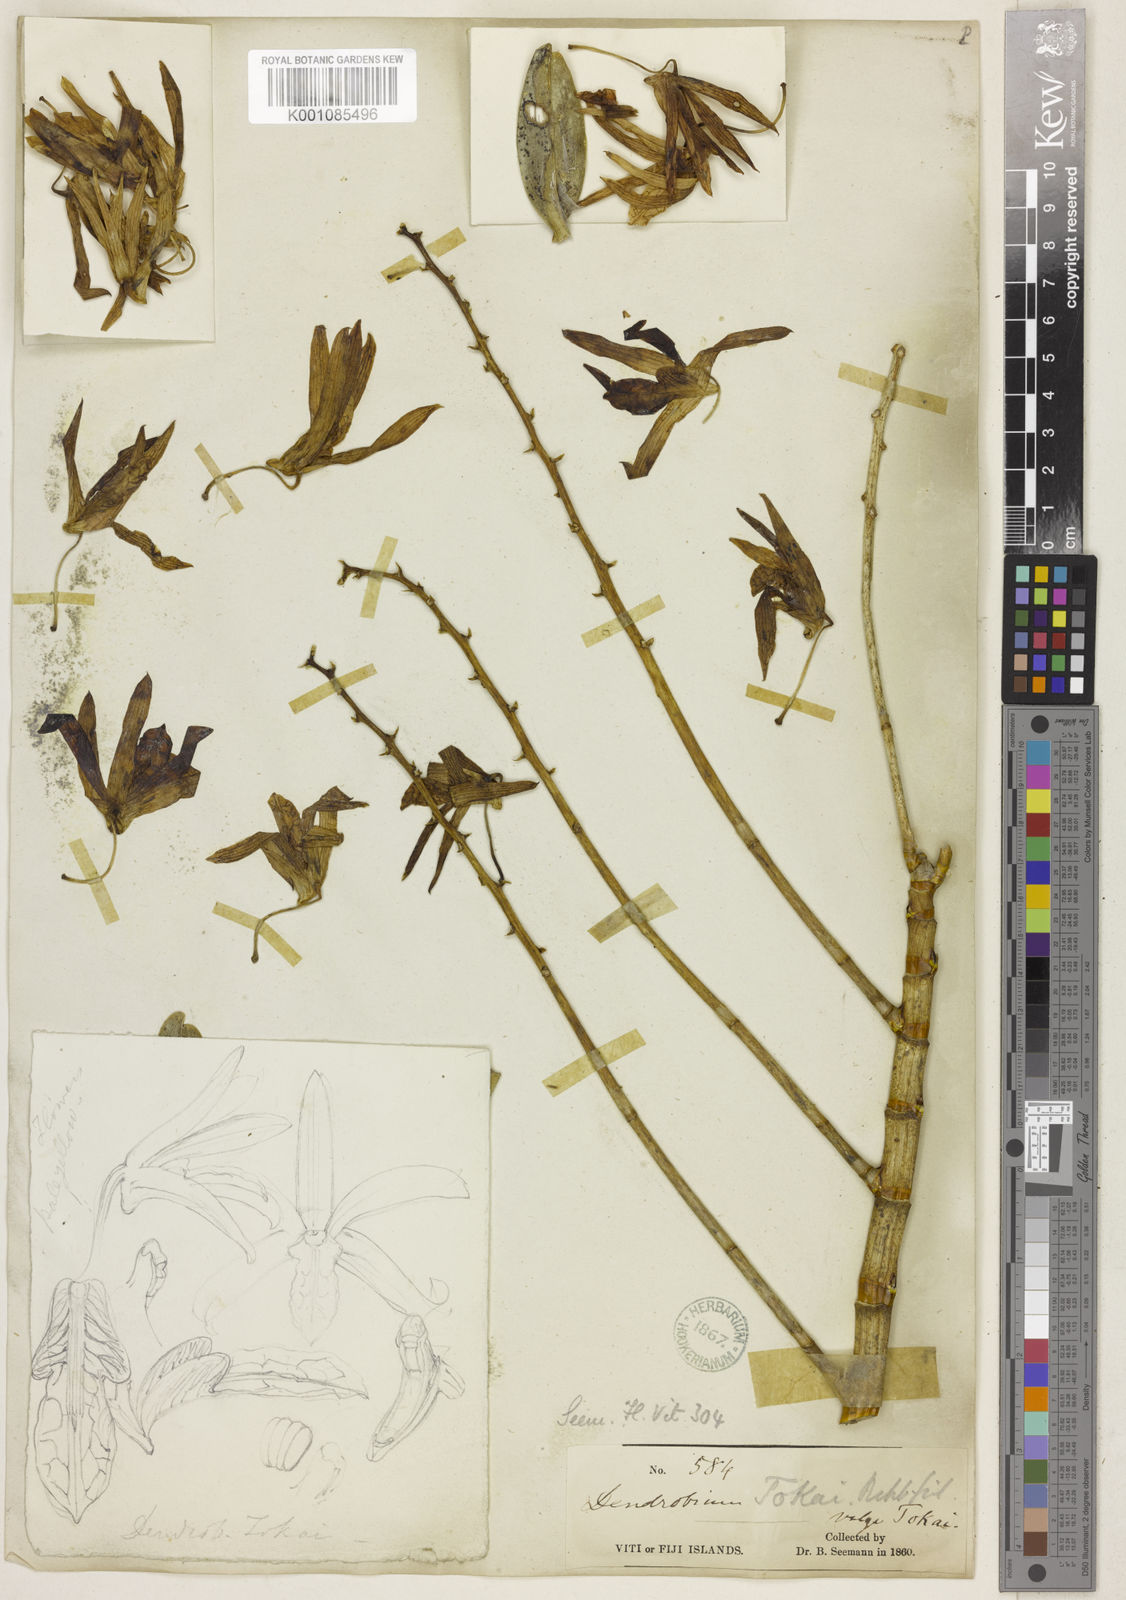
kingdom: Plantae
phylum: Tracheophyta
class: Liliopsida
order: Asparagales
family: Orchidaceae
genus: Dendrobium
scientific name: Dendrobium tokai
